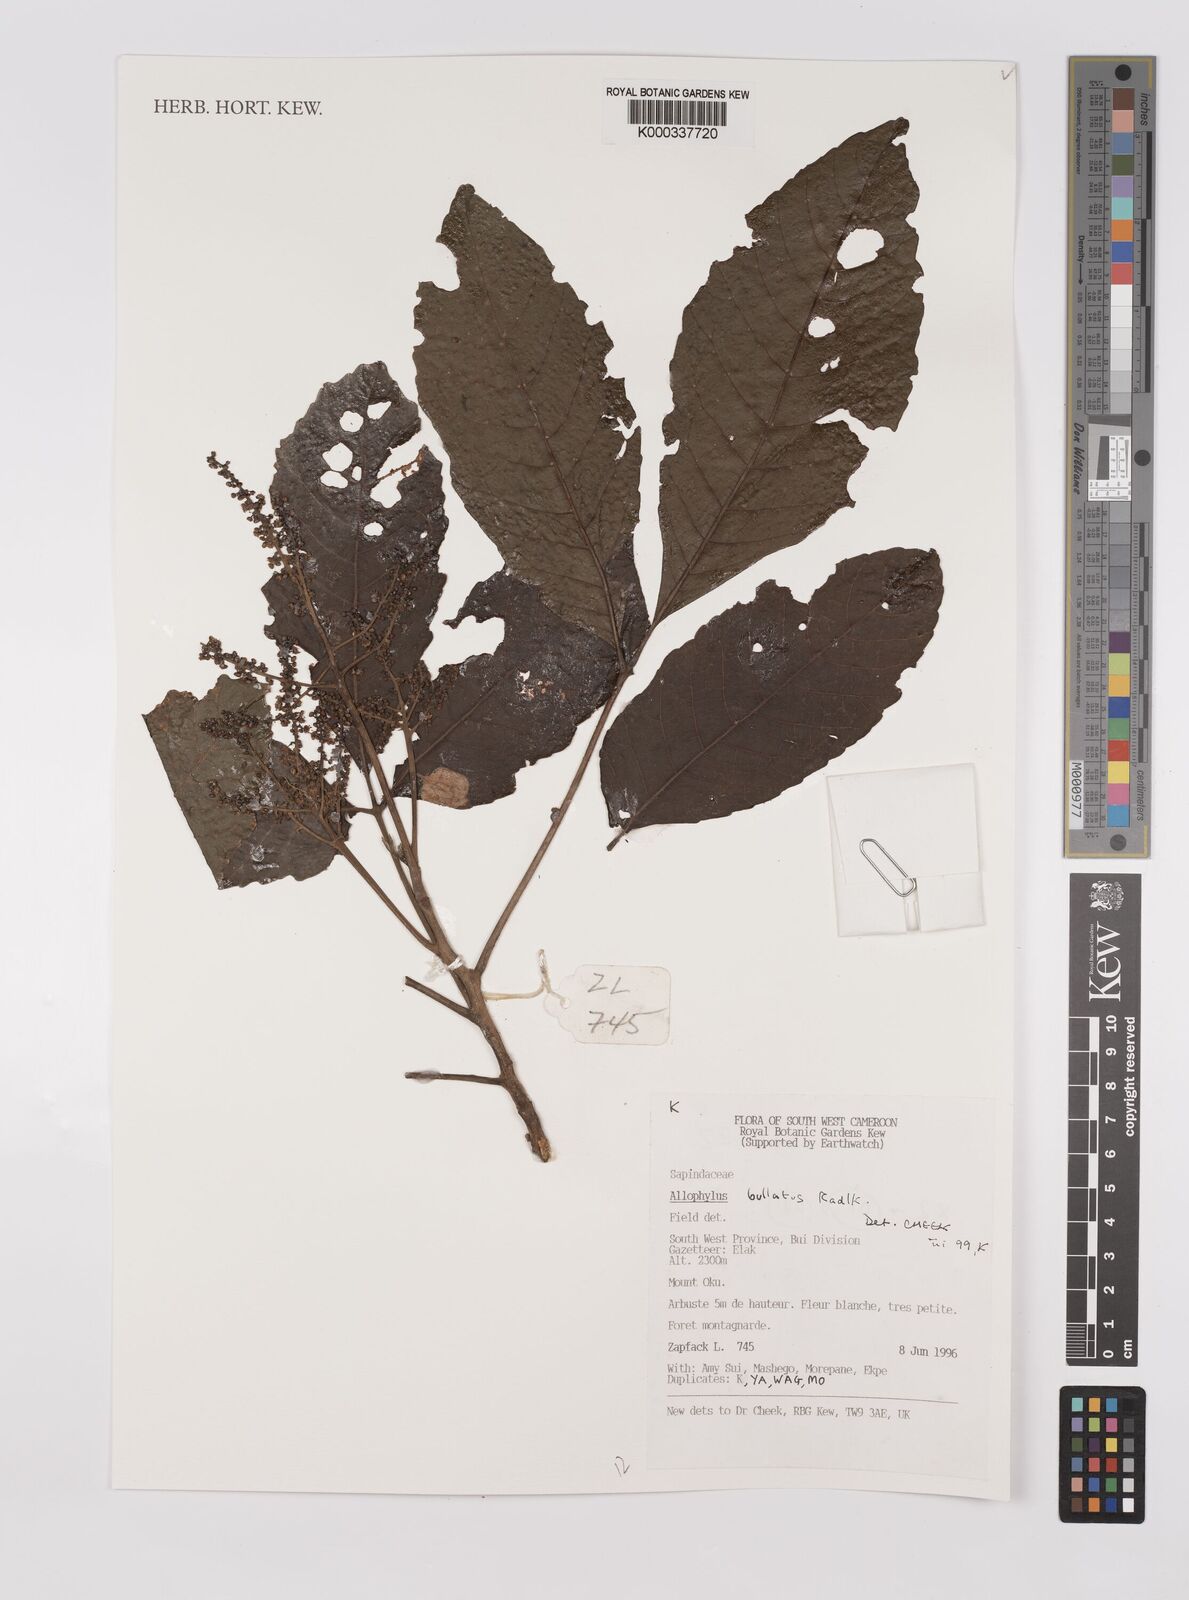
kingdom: Plantae
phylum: Tracheophyta
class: Magnoliopsida
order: Sapindales
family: Sapindaceae
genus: Allophylus
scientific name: Allophylus bullatus
